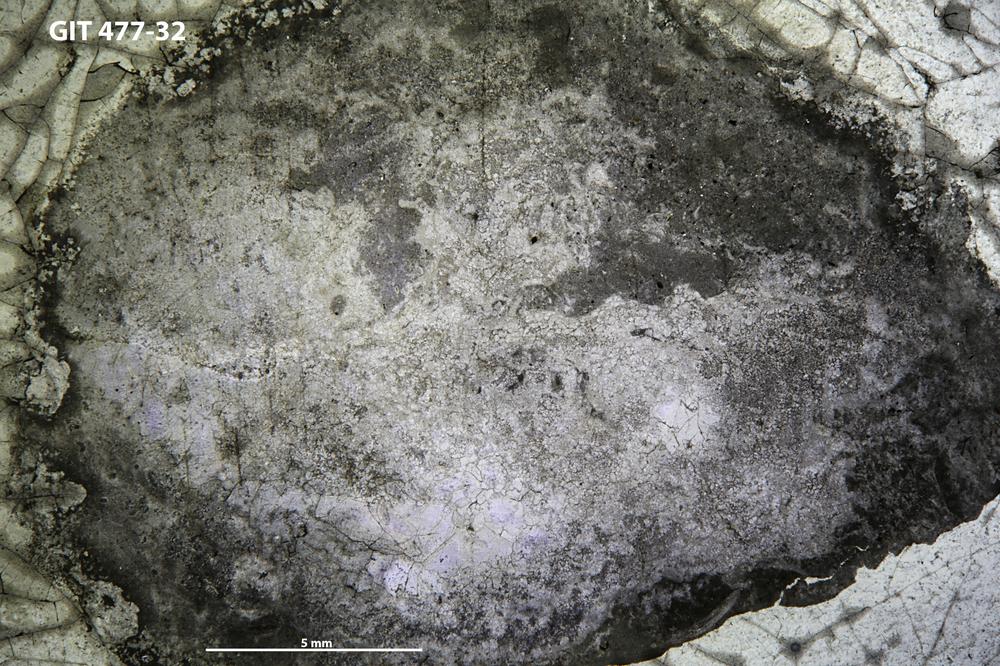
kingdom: Animalia
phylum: Porifera
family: Labechiidae
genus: Labechia
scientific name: Labechia huronensis
